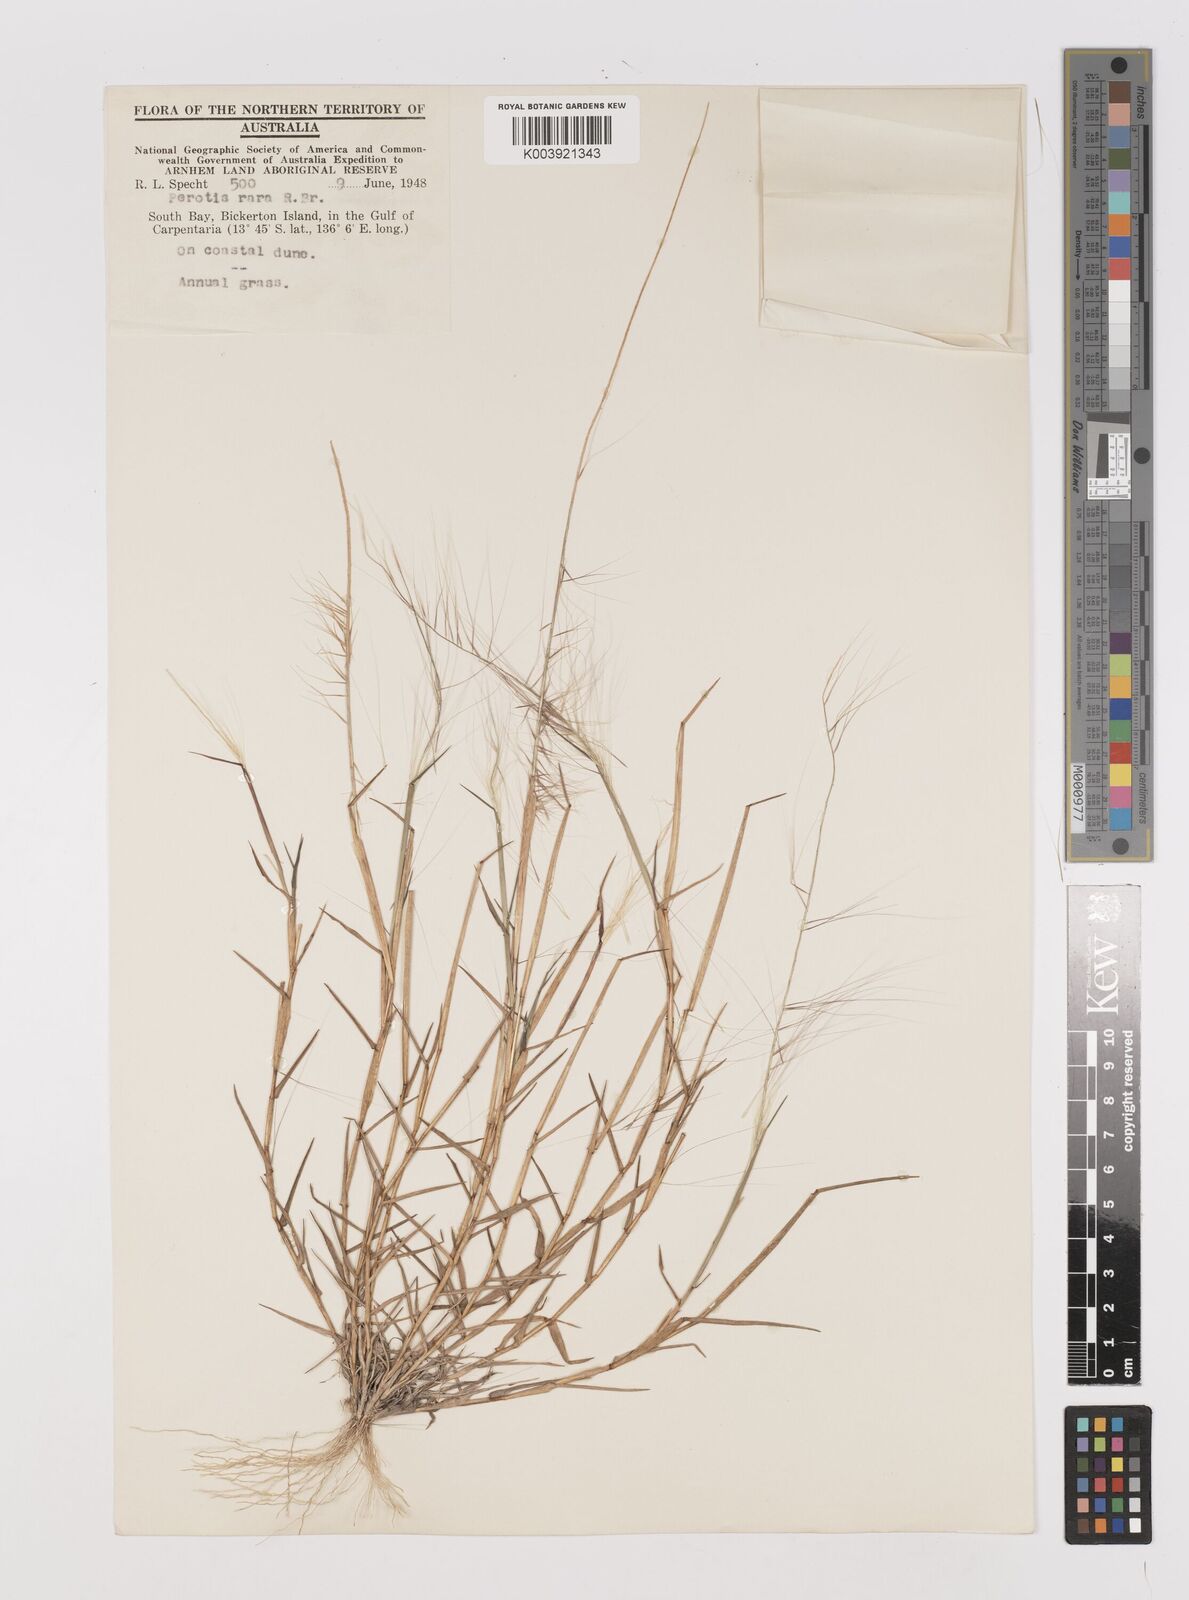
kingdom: Plantae
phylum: Tracheophyta
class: Liliopsida
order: Poales
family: Poaceae
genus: Perotis
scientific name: Perotis rara
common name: Comet grass
